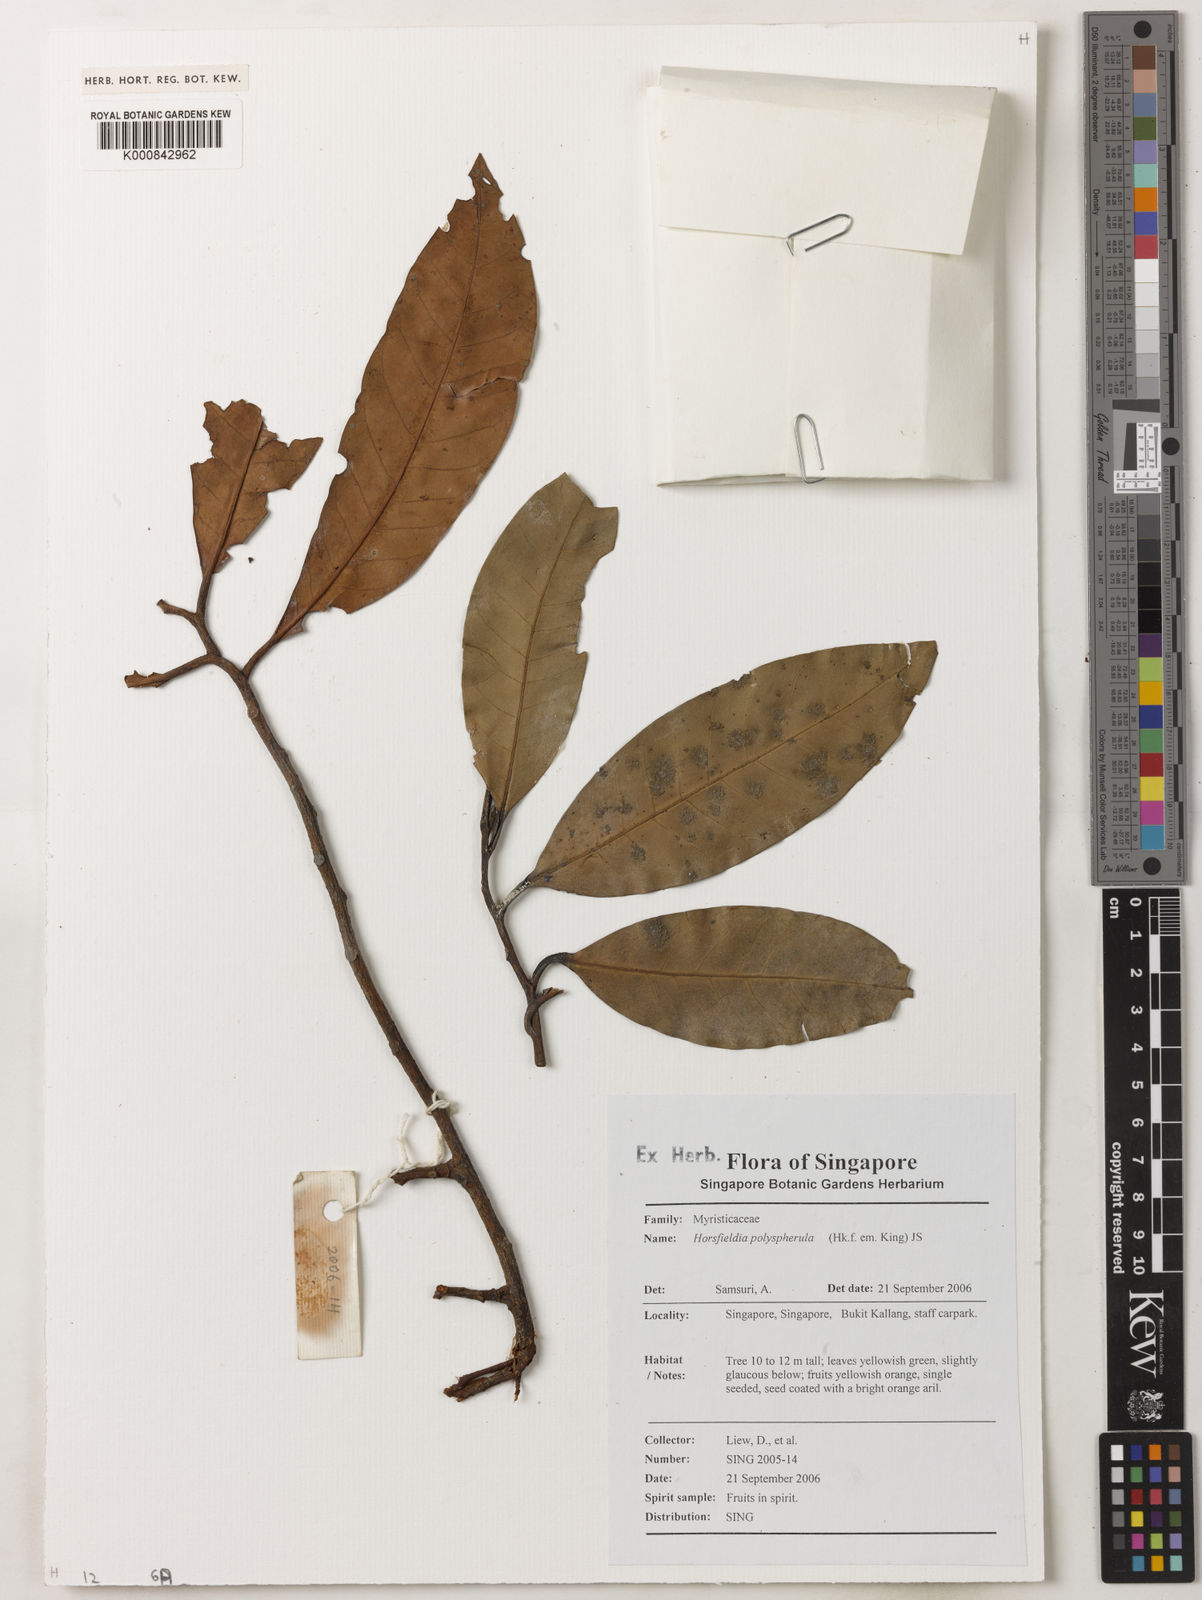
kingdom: Plantae
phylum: Tracheophyta
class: Magnoliopsida
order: Magnoliales
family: Myristicaceae
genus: Horsfieldia
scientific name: Horsfieldia
